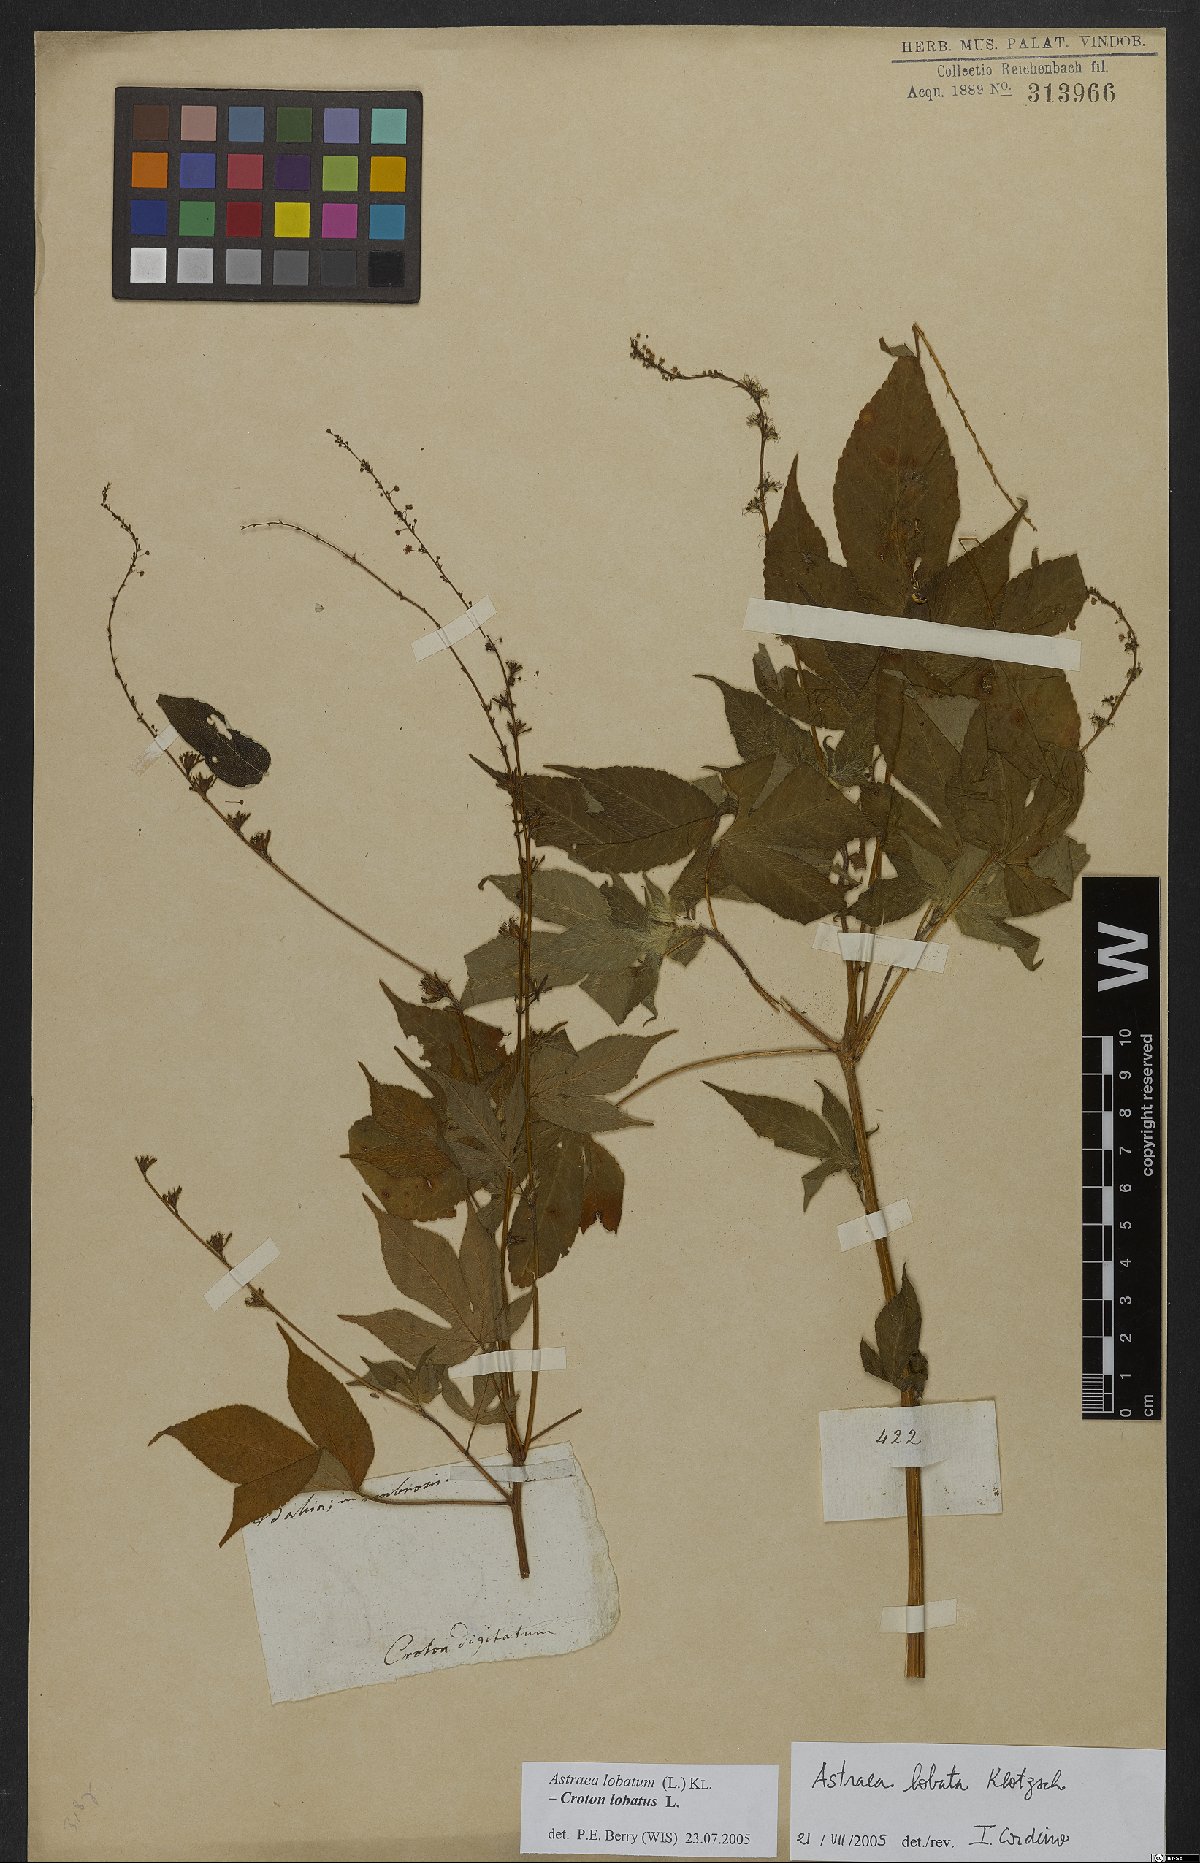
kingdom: Plantae
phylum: Tracheophyta
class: Magnoliopsida
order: Malpighiales
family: Euphorbiaceae
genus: Croton
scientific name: Croton lobatus
